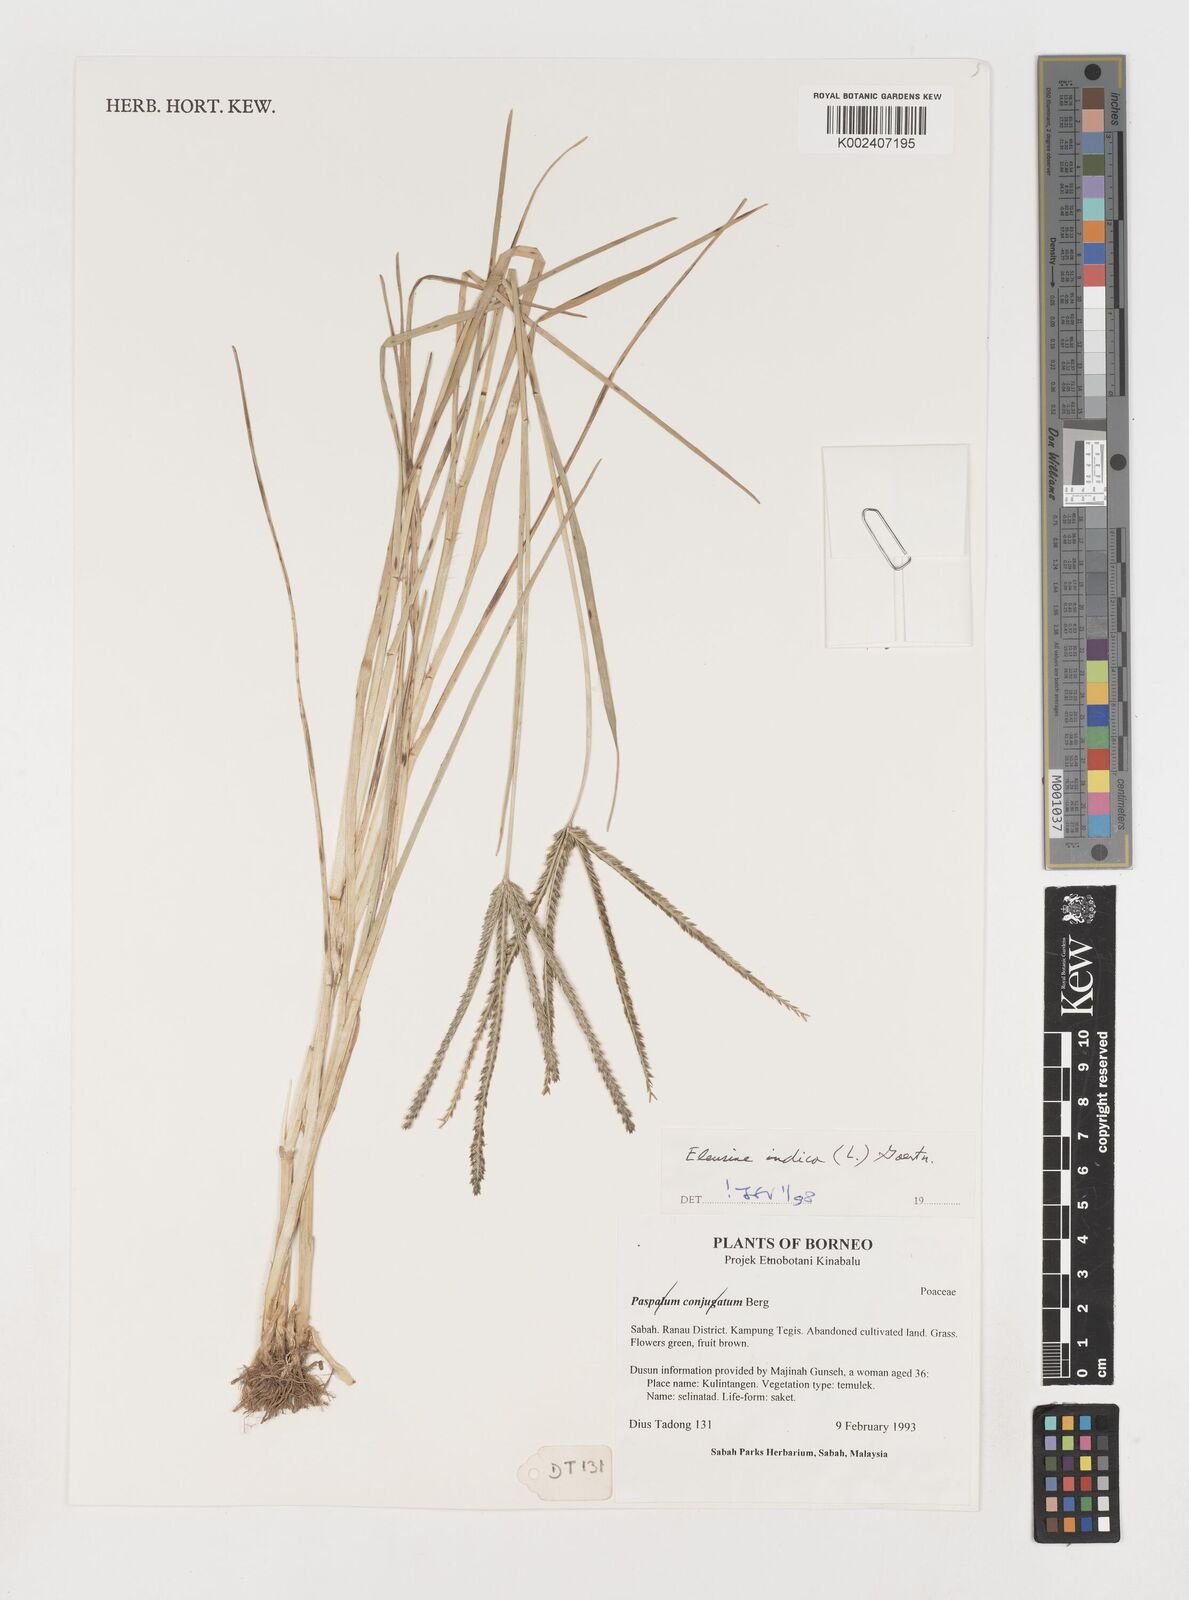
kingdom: Plantae
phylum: Tracheophyta
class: Liliopsida
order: Poales
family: Poaceae
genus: Eleusine
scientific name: Eleusine indica
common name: Yard-grass
